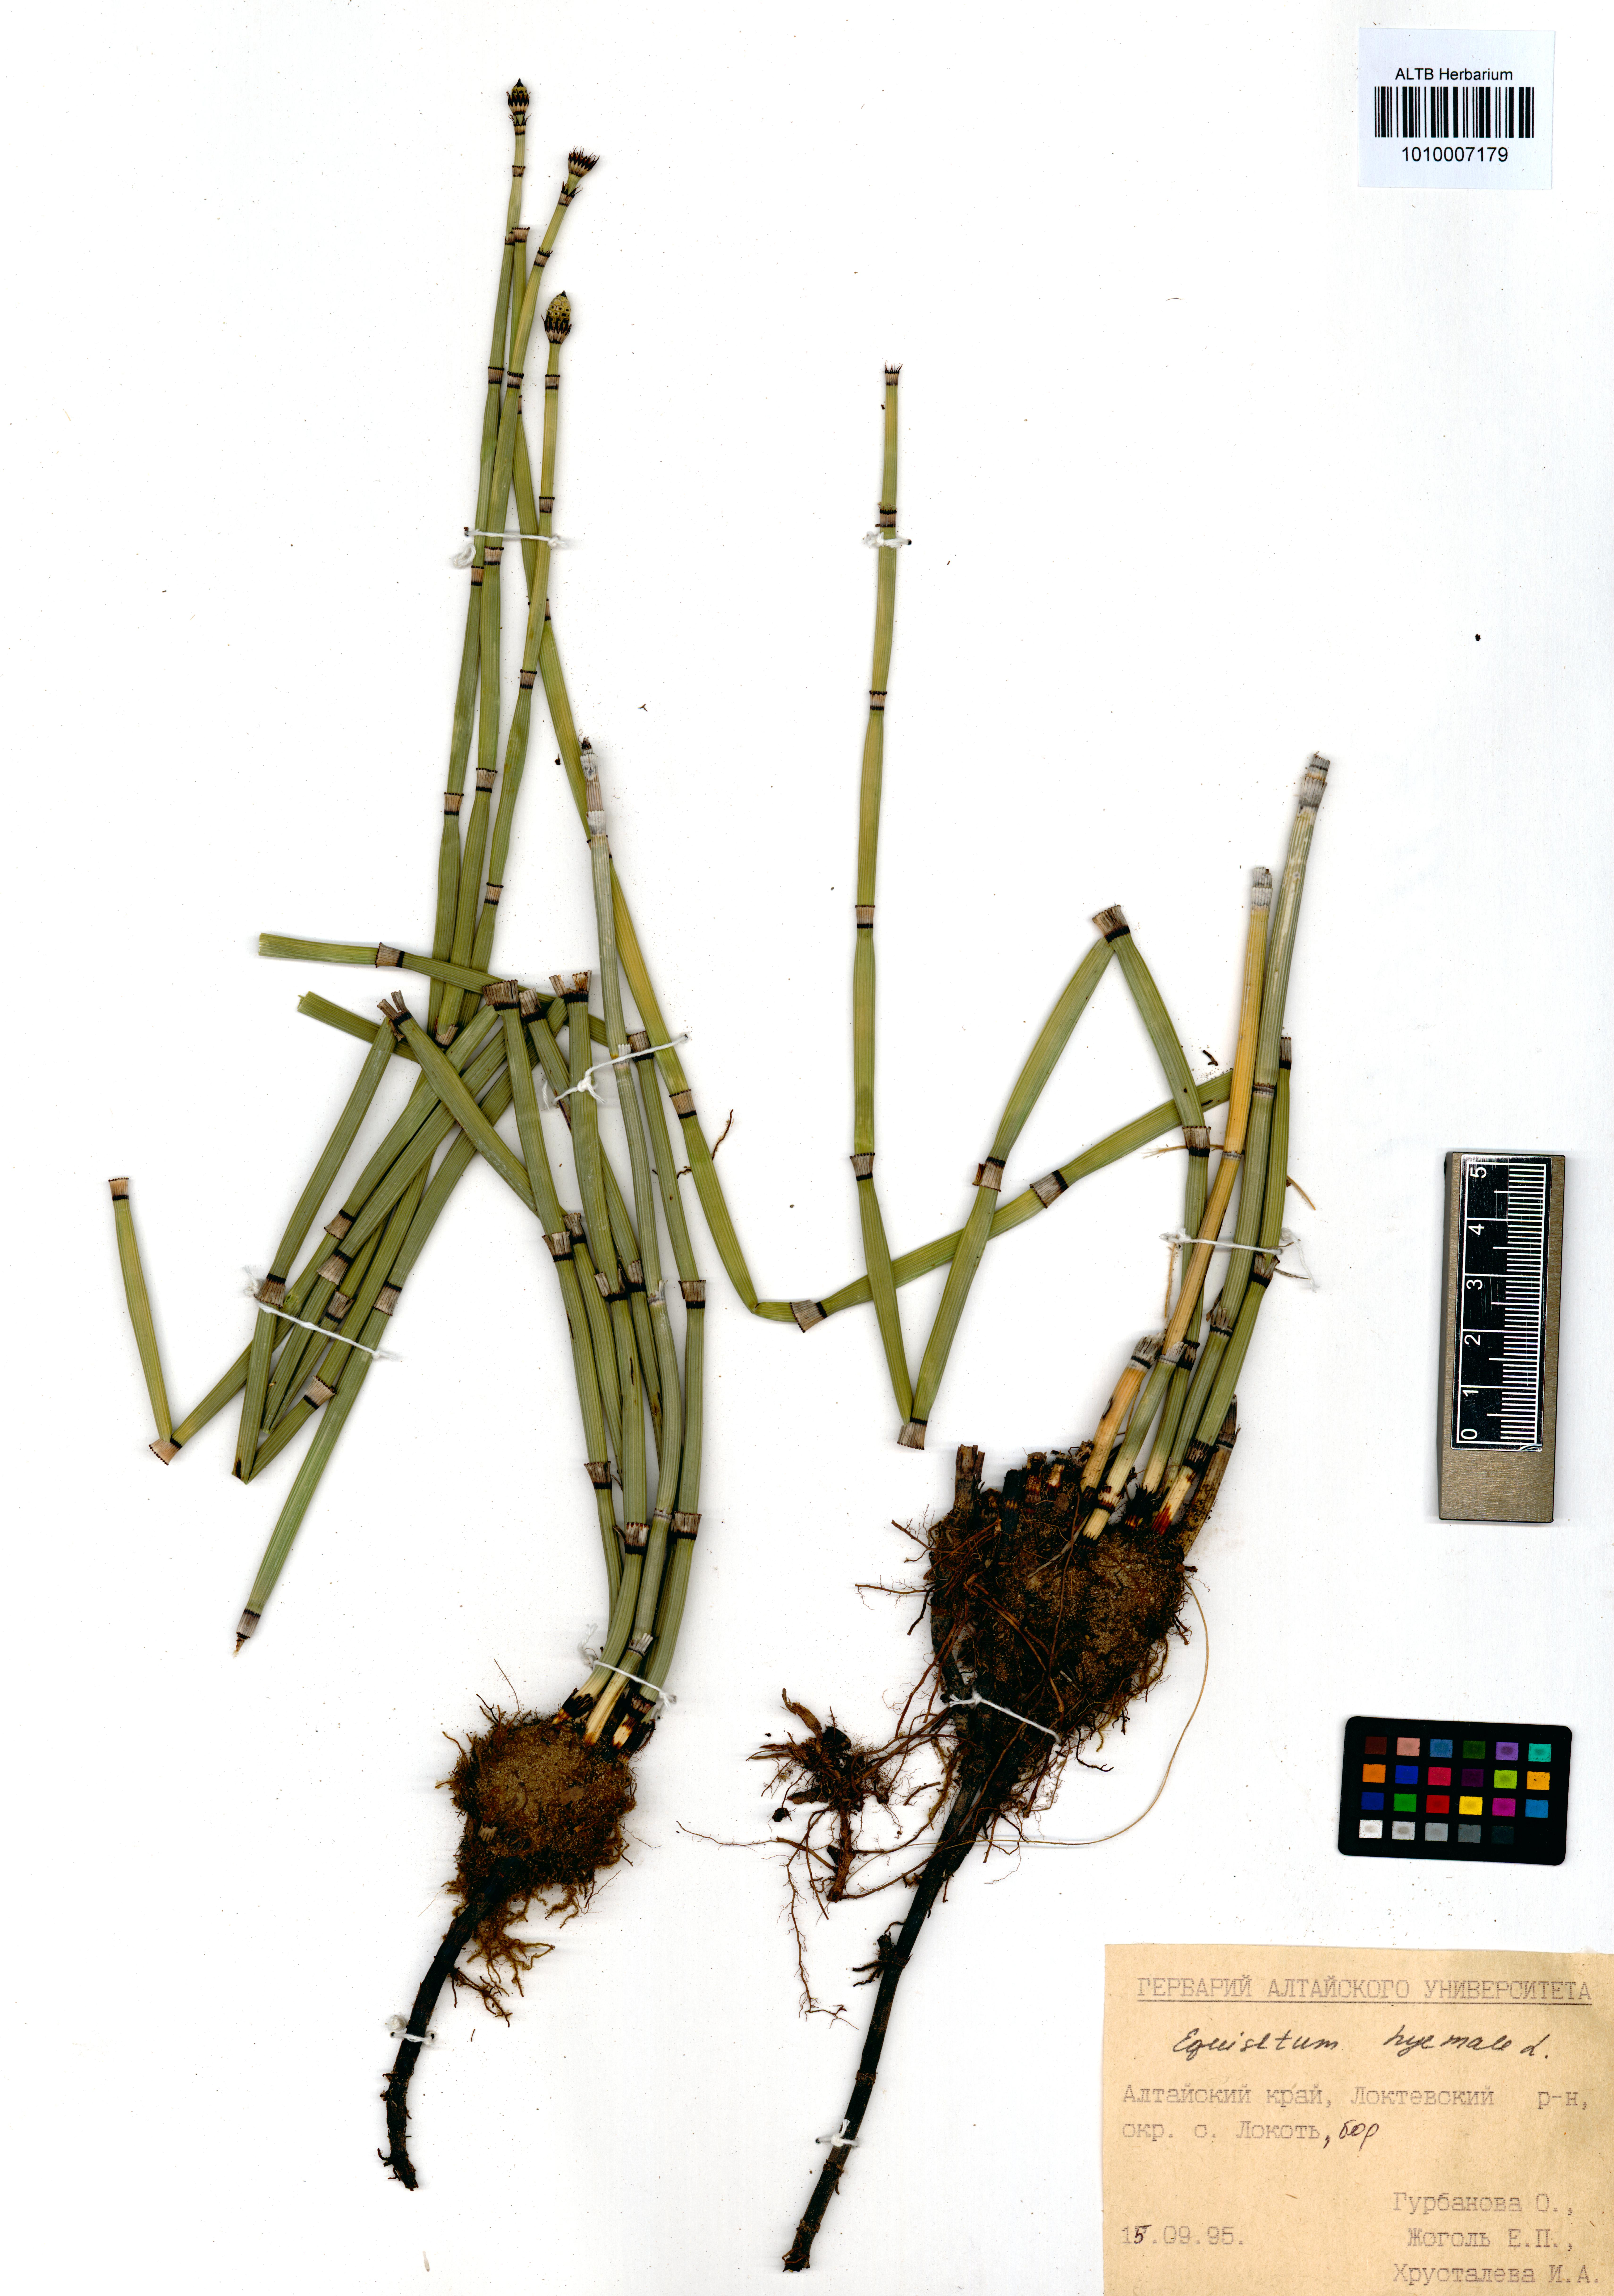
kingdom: Plantae
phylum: Tracheophyta
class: Polypodiopsida
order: Equisetales
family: Equisetaceae
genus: Equisetum
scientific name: Equisetum hyemale
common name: Rough horsetail
